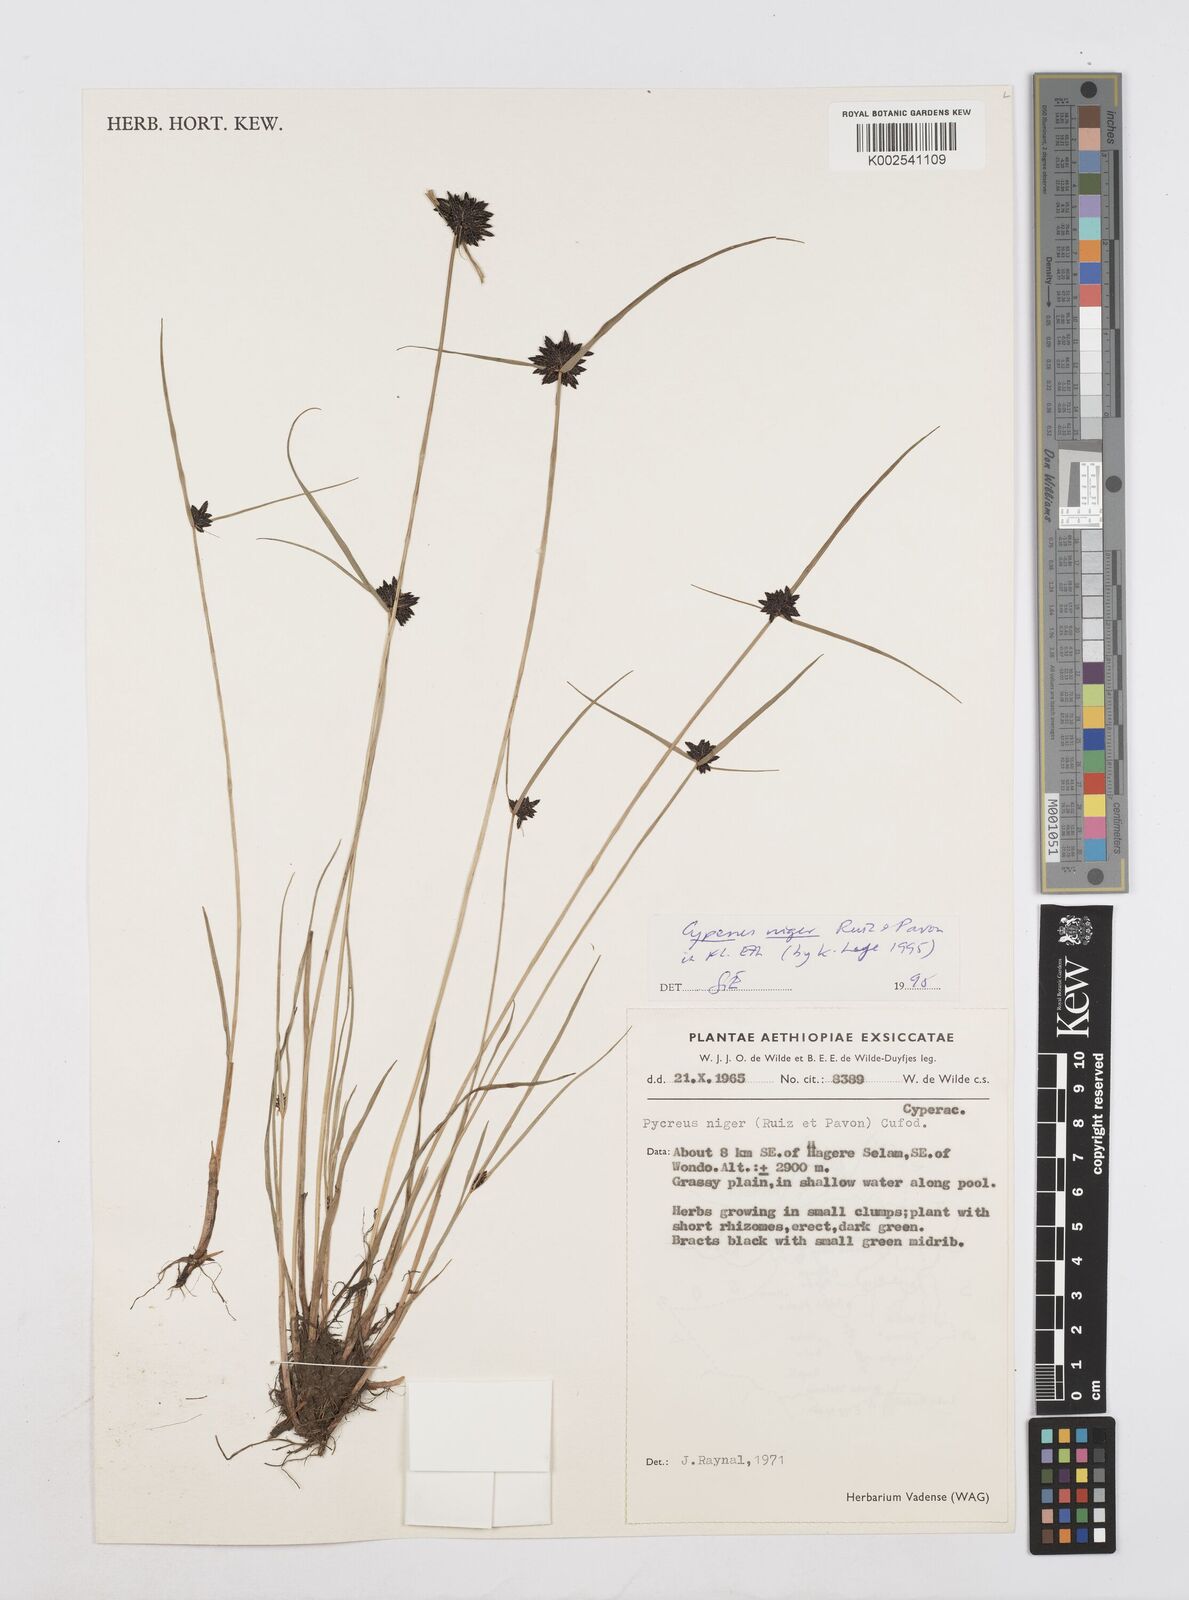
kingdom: Plantae
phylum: Tracheophyta
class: Liliopsida
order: Poales
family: Cyperaceae
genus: Cyperus
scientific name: Cyperus elegantulus
